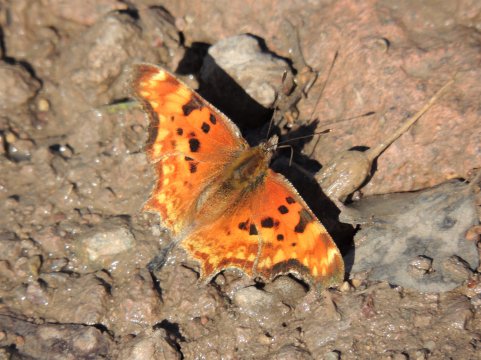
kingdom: Animalia
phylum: Arthropoda
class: Insecta
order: Lepidoptera
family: Nymphalidae
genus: Polygonia
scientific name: Polygonia gracilis
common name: Hoary Comma
